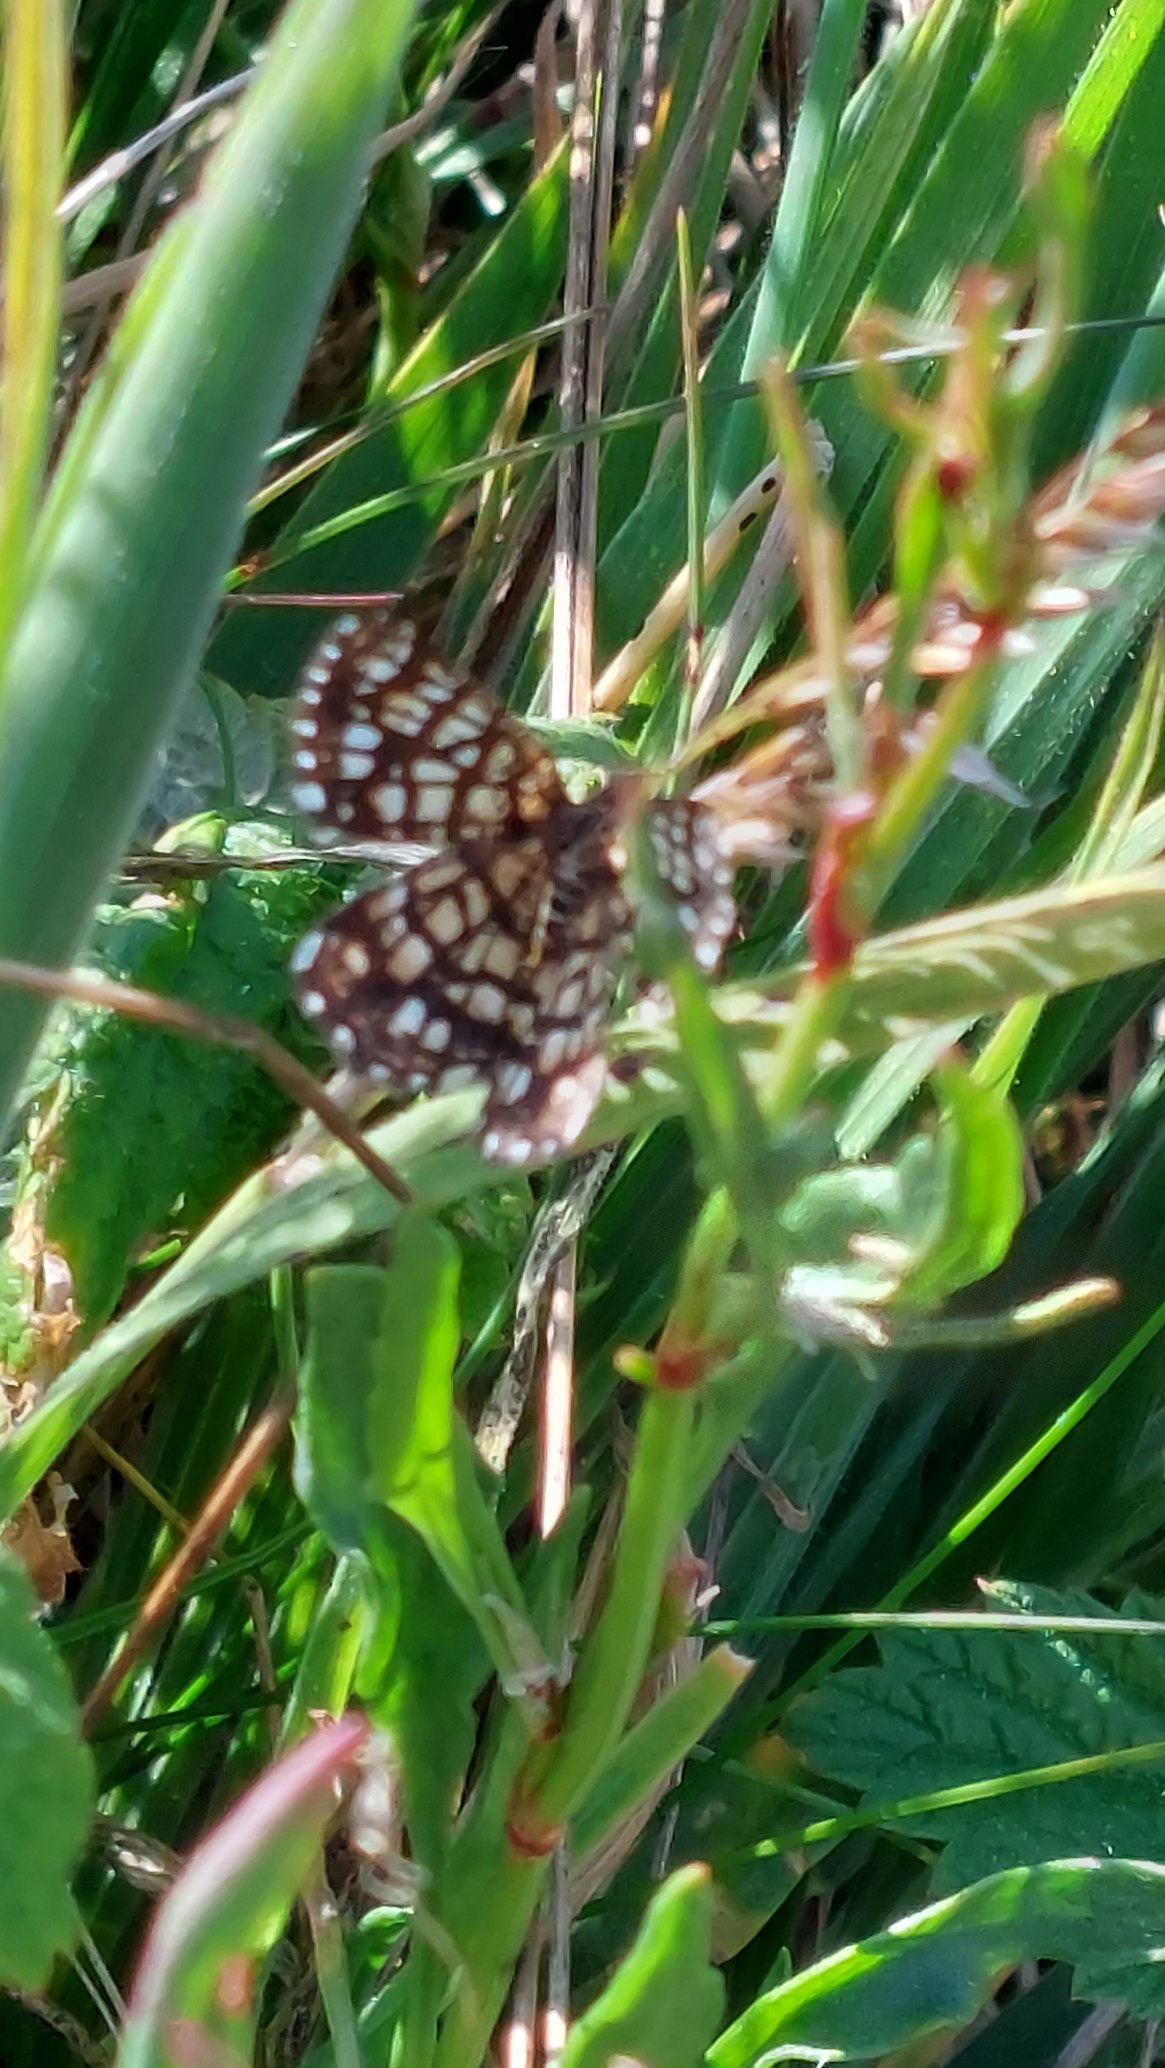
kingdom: Animalia
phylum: Arthropoda
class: Insecta
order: Lepidoptera
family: Geometridae
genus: Chiasmia
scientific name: Chiasmia clathrata
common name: Kløvermåler
